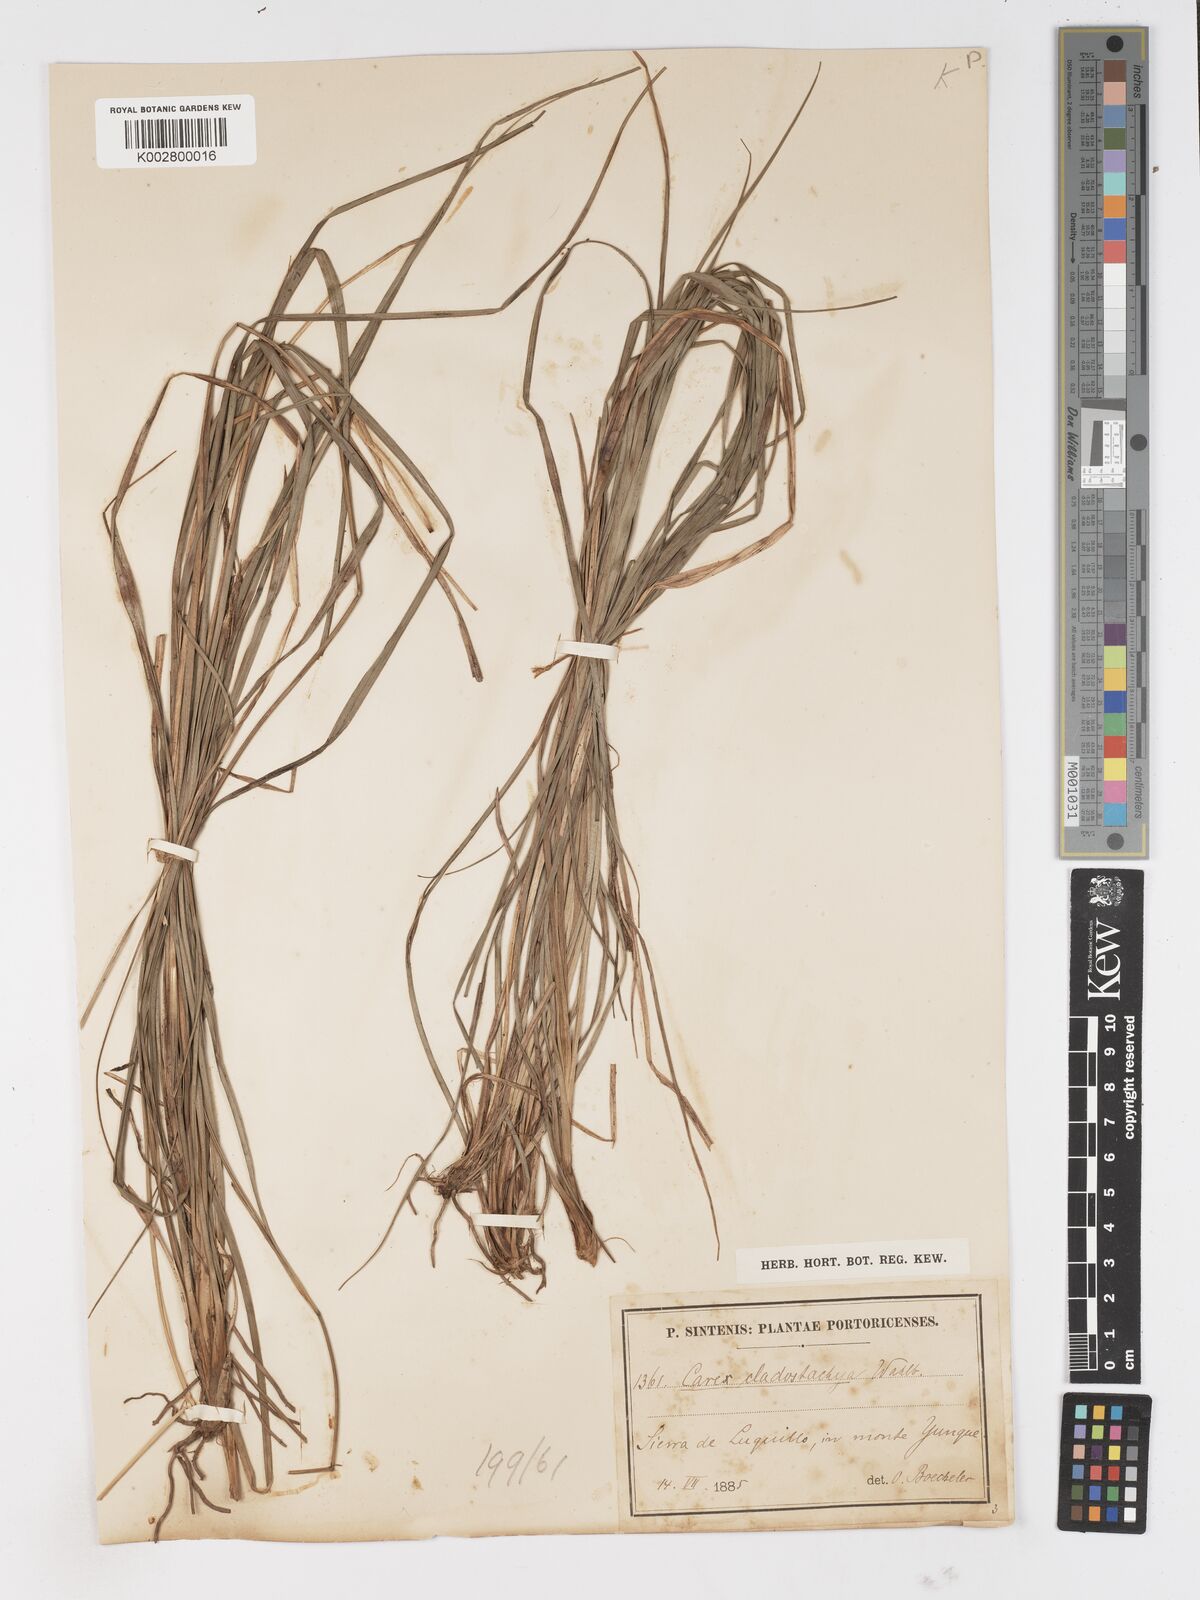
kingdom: Plantae
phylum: Tracheophyta
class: Liliopsida
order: Poales
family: Cyperaceae
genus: Carex
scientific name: Carex polystachya
